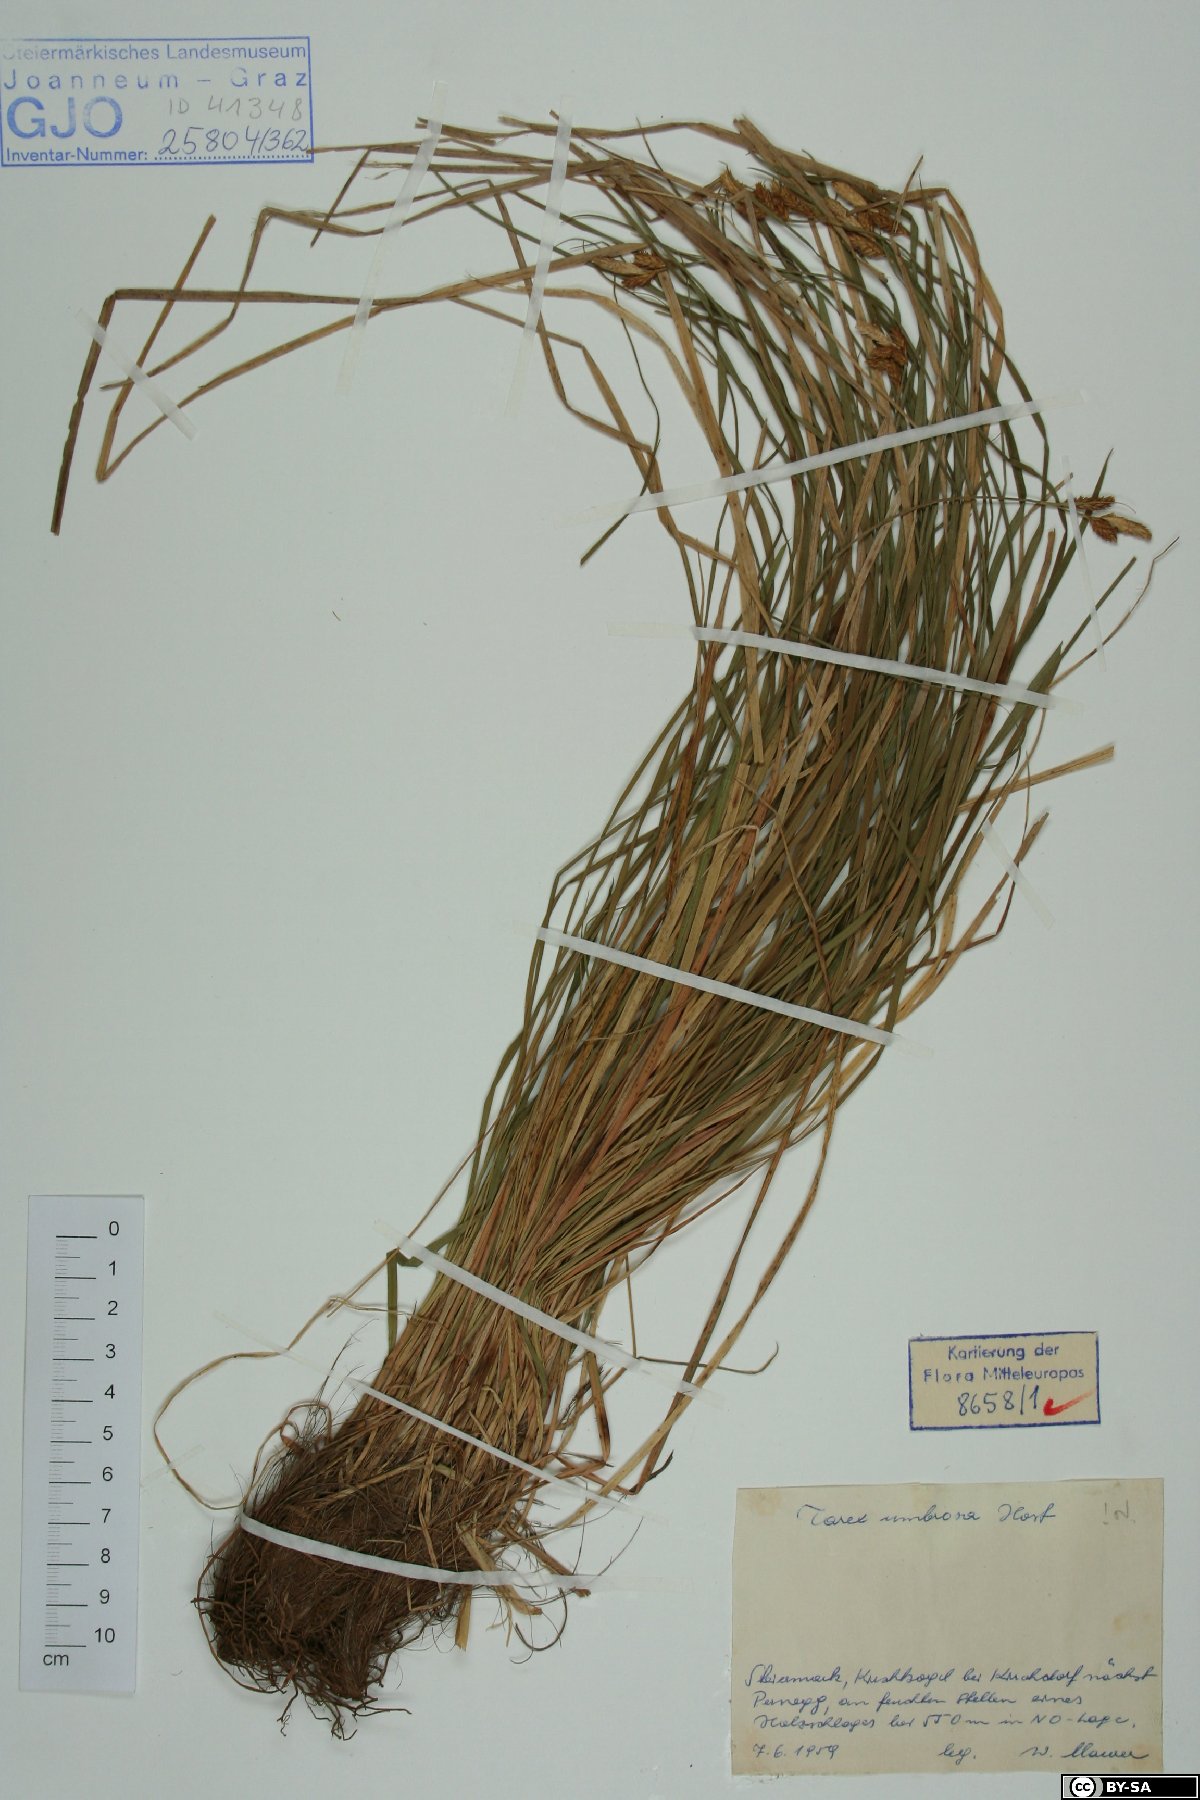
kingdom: Plantae
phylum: Tracheophyta
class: Liliopsida
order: Poales
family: Cyperaceae
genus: Carex
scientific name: Carex umbrosa
